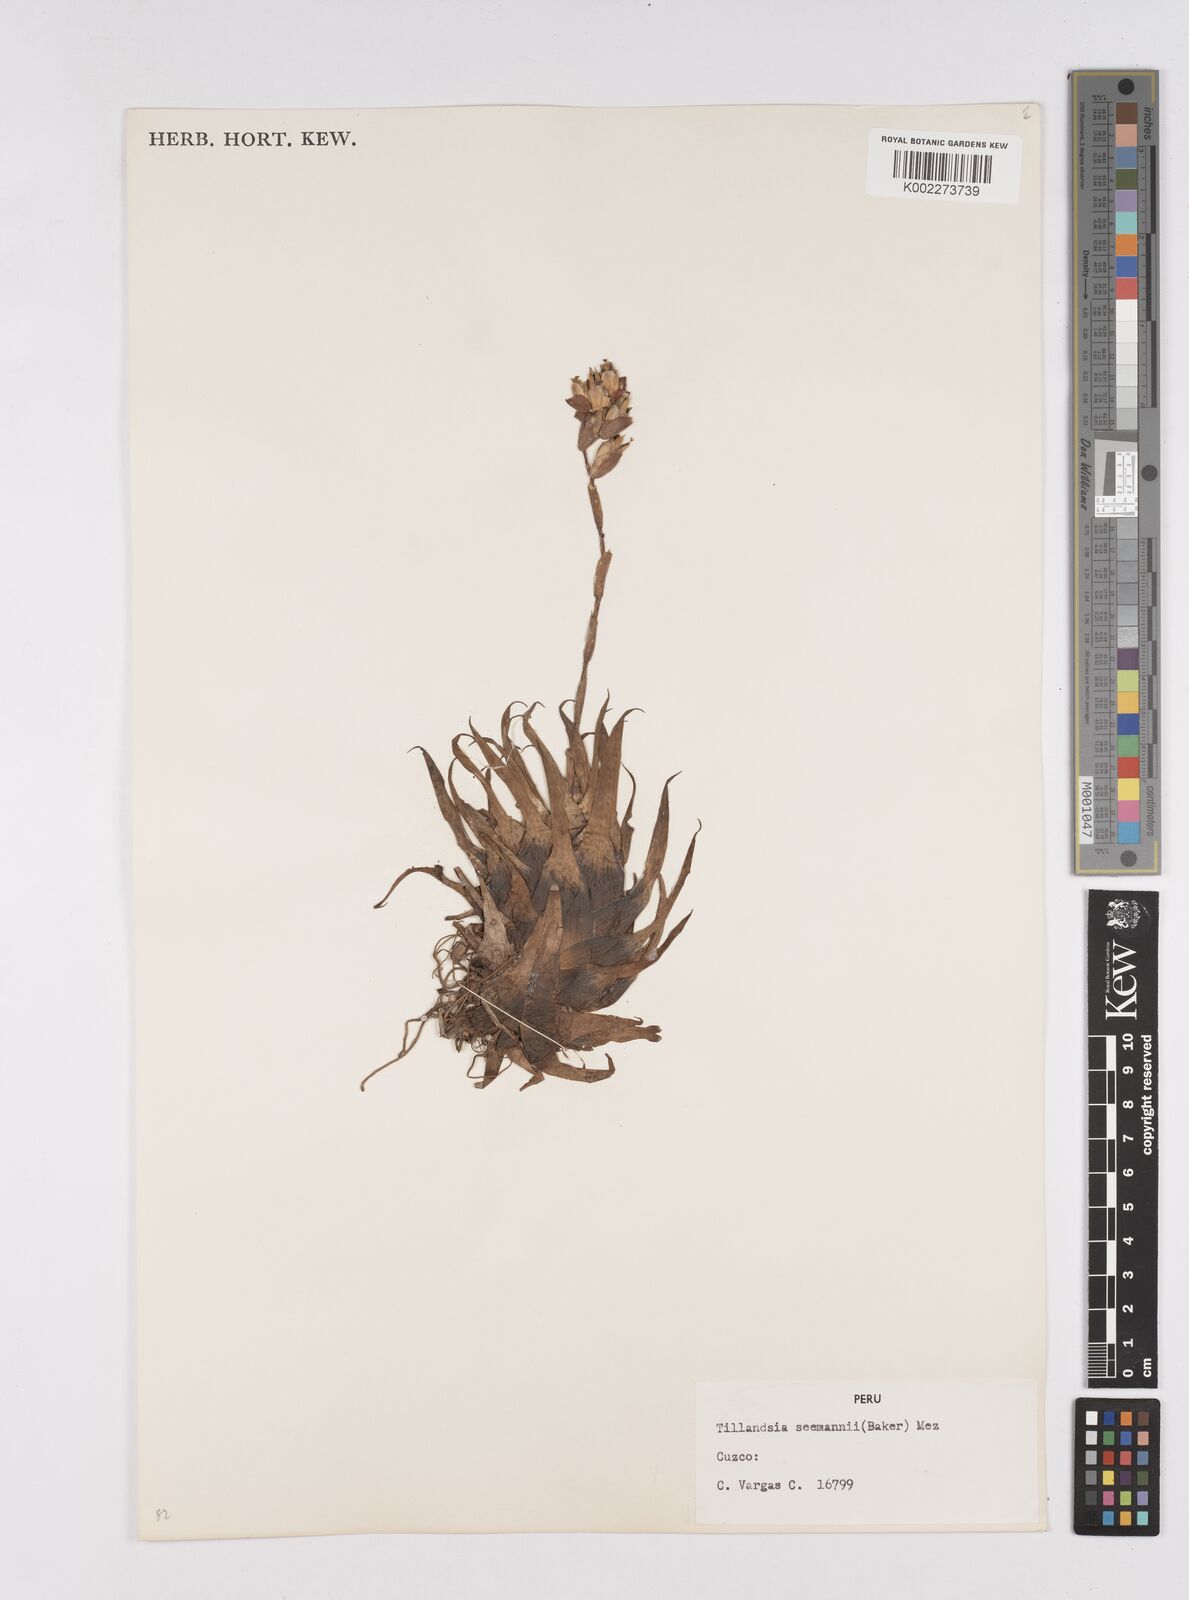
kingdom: Plantae
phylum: Tracheophyta
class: Liliopsida
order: Poales
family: Bromeliaceae
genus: Racinaea
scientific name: Racinaea seemannii
